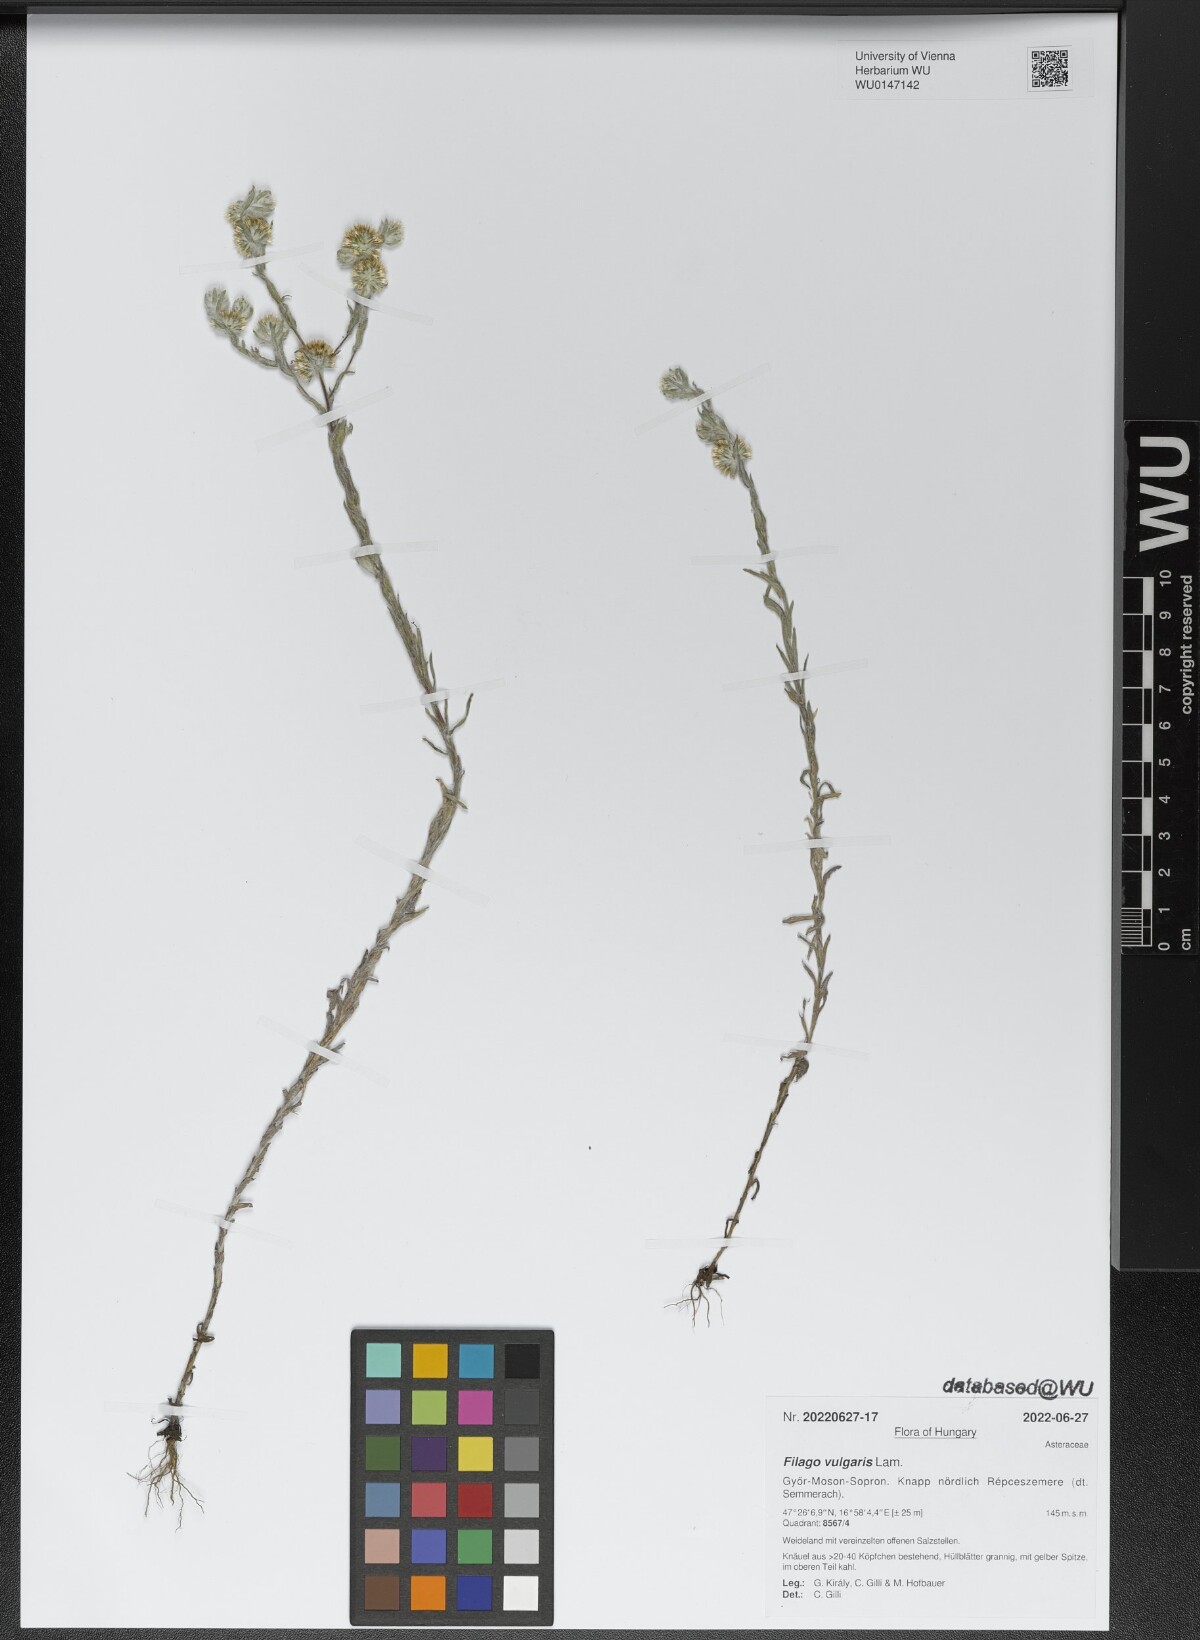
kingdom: Plantae
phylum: Tracheophyta
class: Magnoliopsida
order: Asterales
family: Asteraceae
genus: Filago
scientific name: Filago germanica
